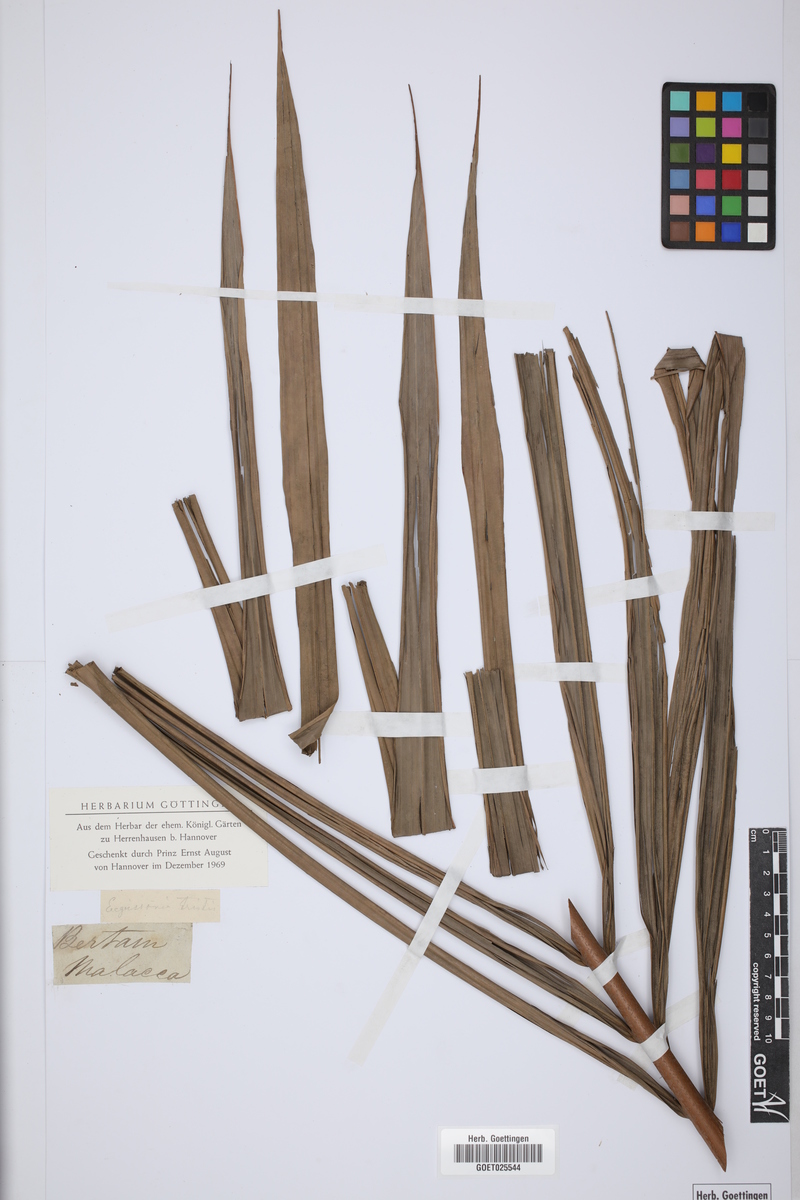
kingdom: Plantae
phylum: Tracheophyta
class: Liliopsida
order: Arecales
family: Arecaceae
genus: Eugeissona
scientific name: Eugeissona tristis
